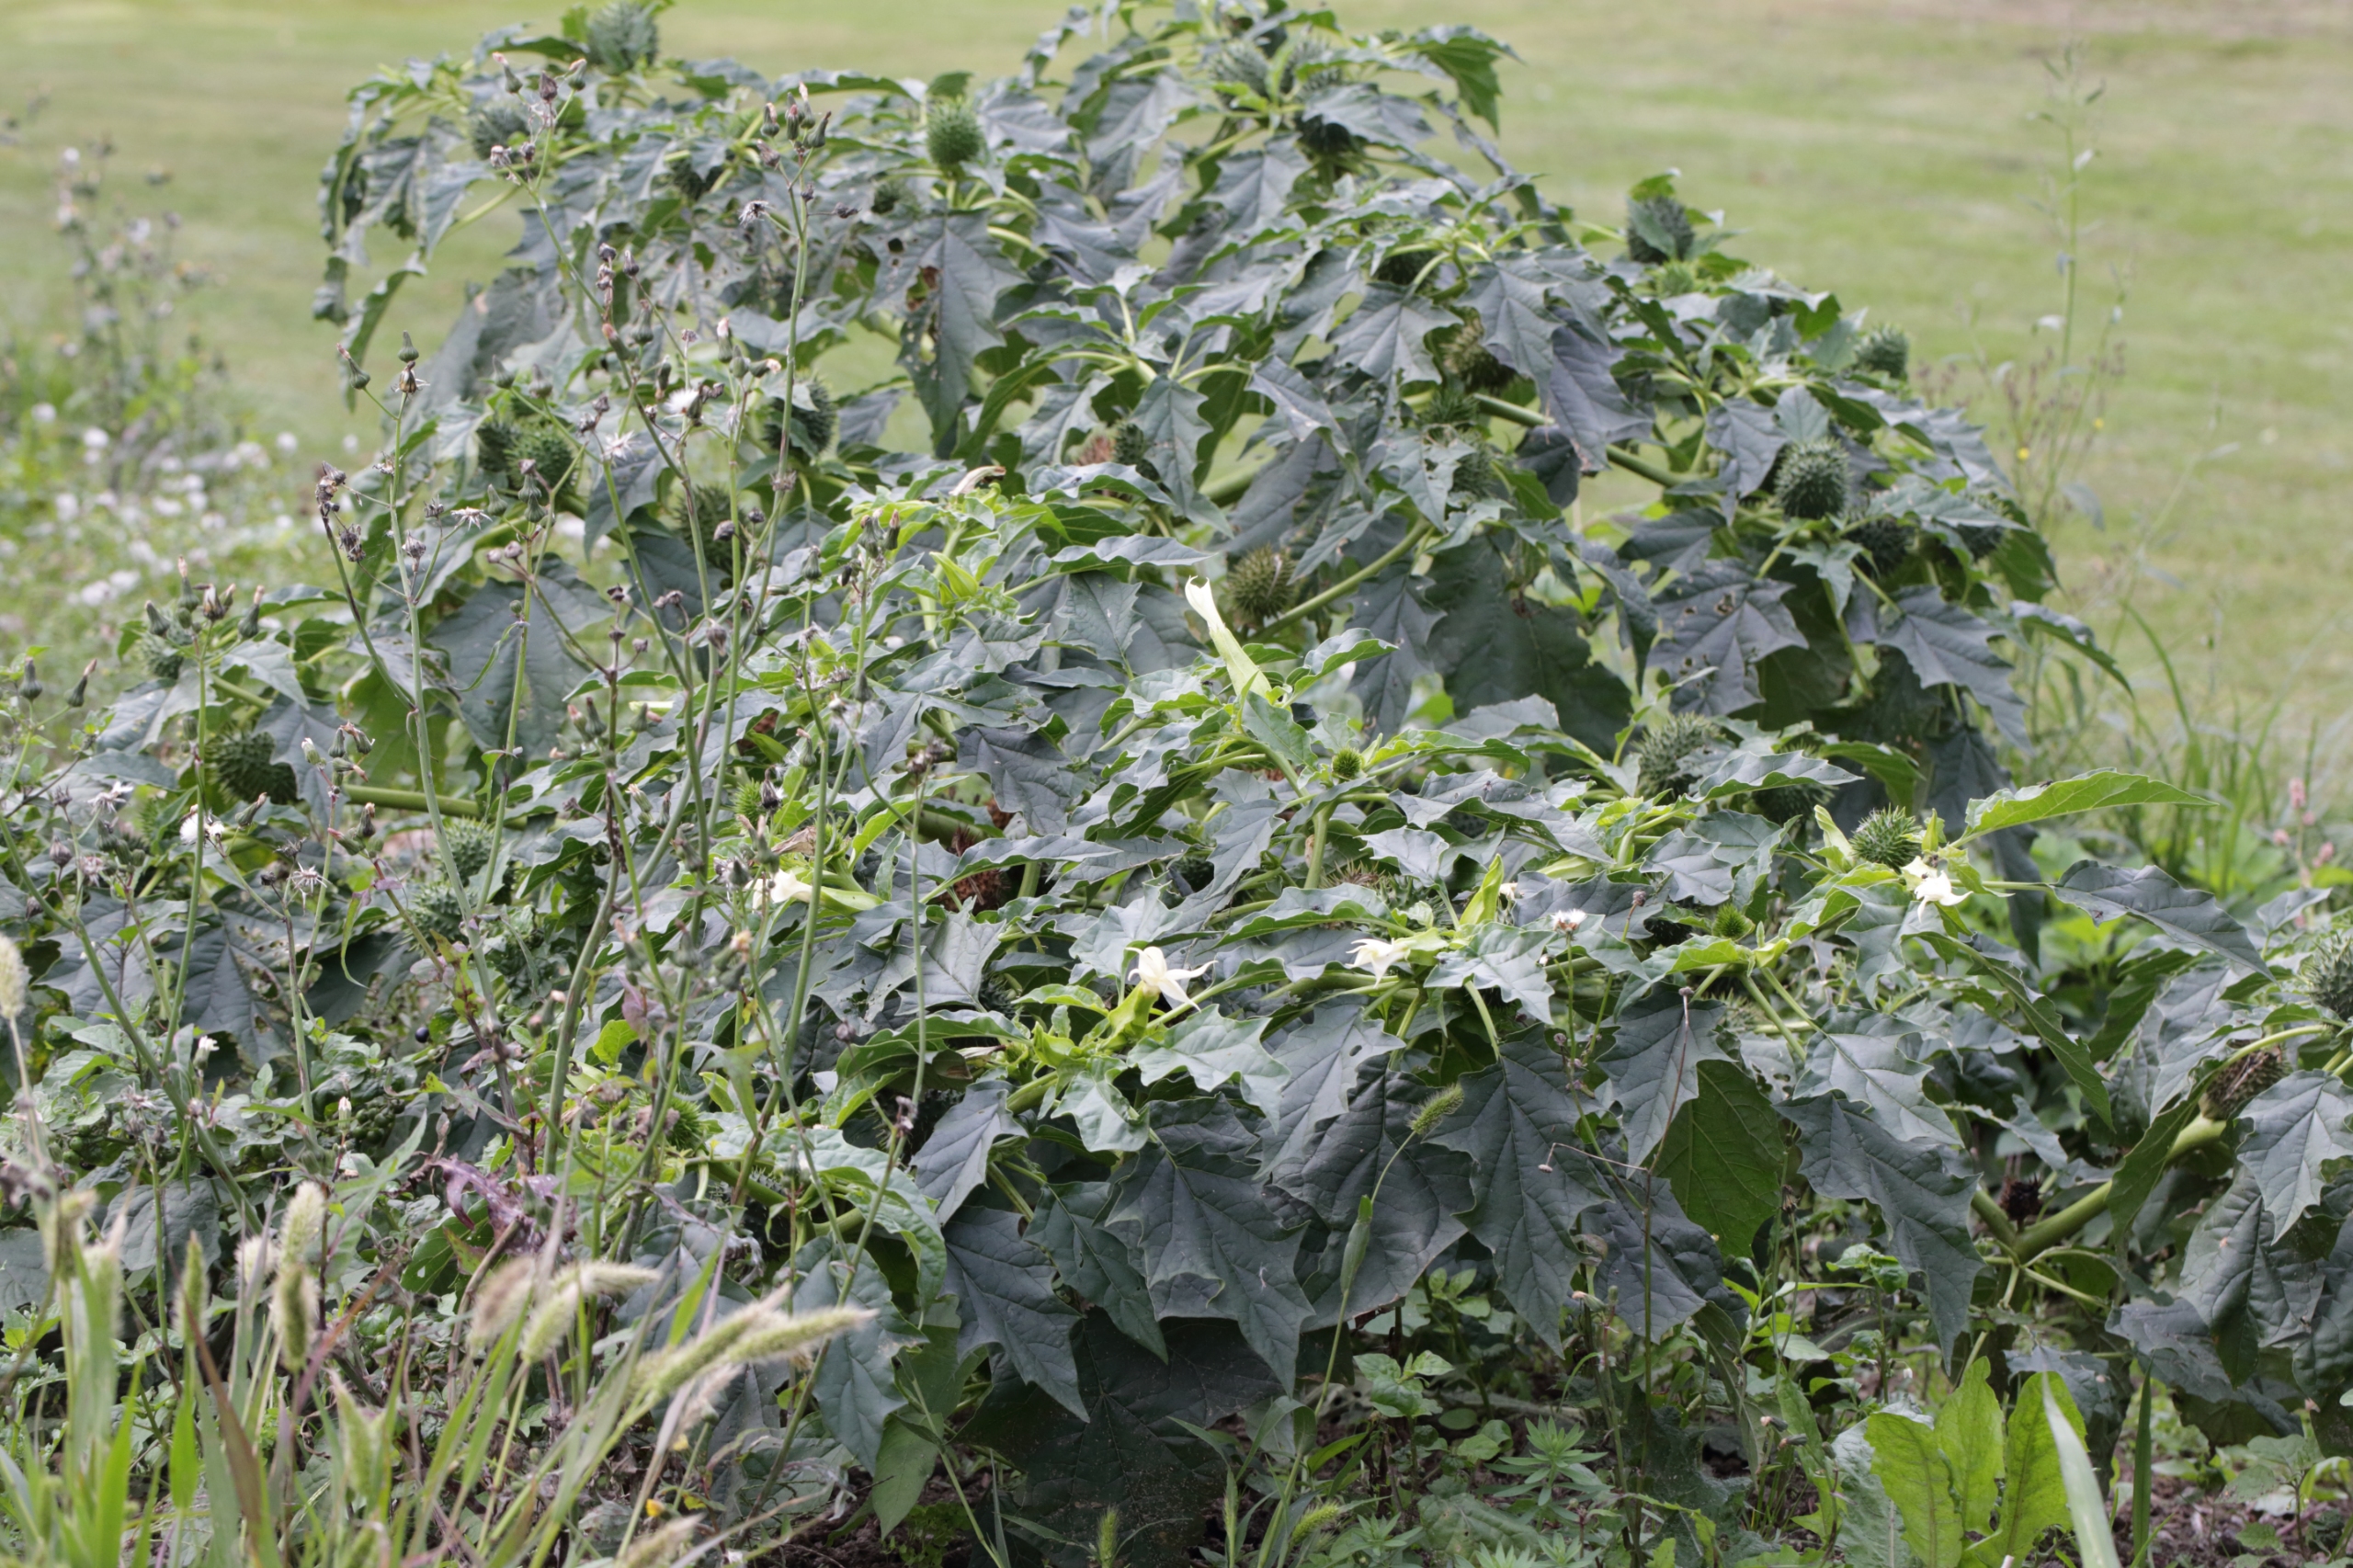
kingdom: Plantae
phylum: Tracheophyta
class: Magnoliopsida
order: Solanales
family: Solanaceae
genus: Datura
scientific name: Datura stramonium
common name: Pigæble
